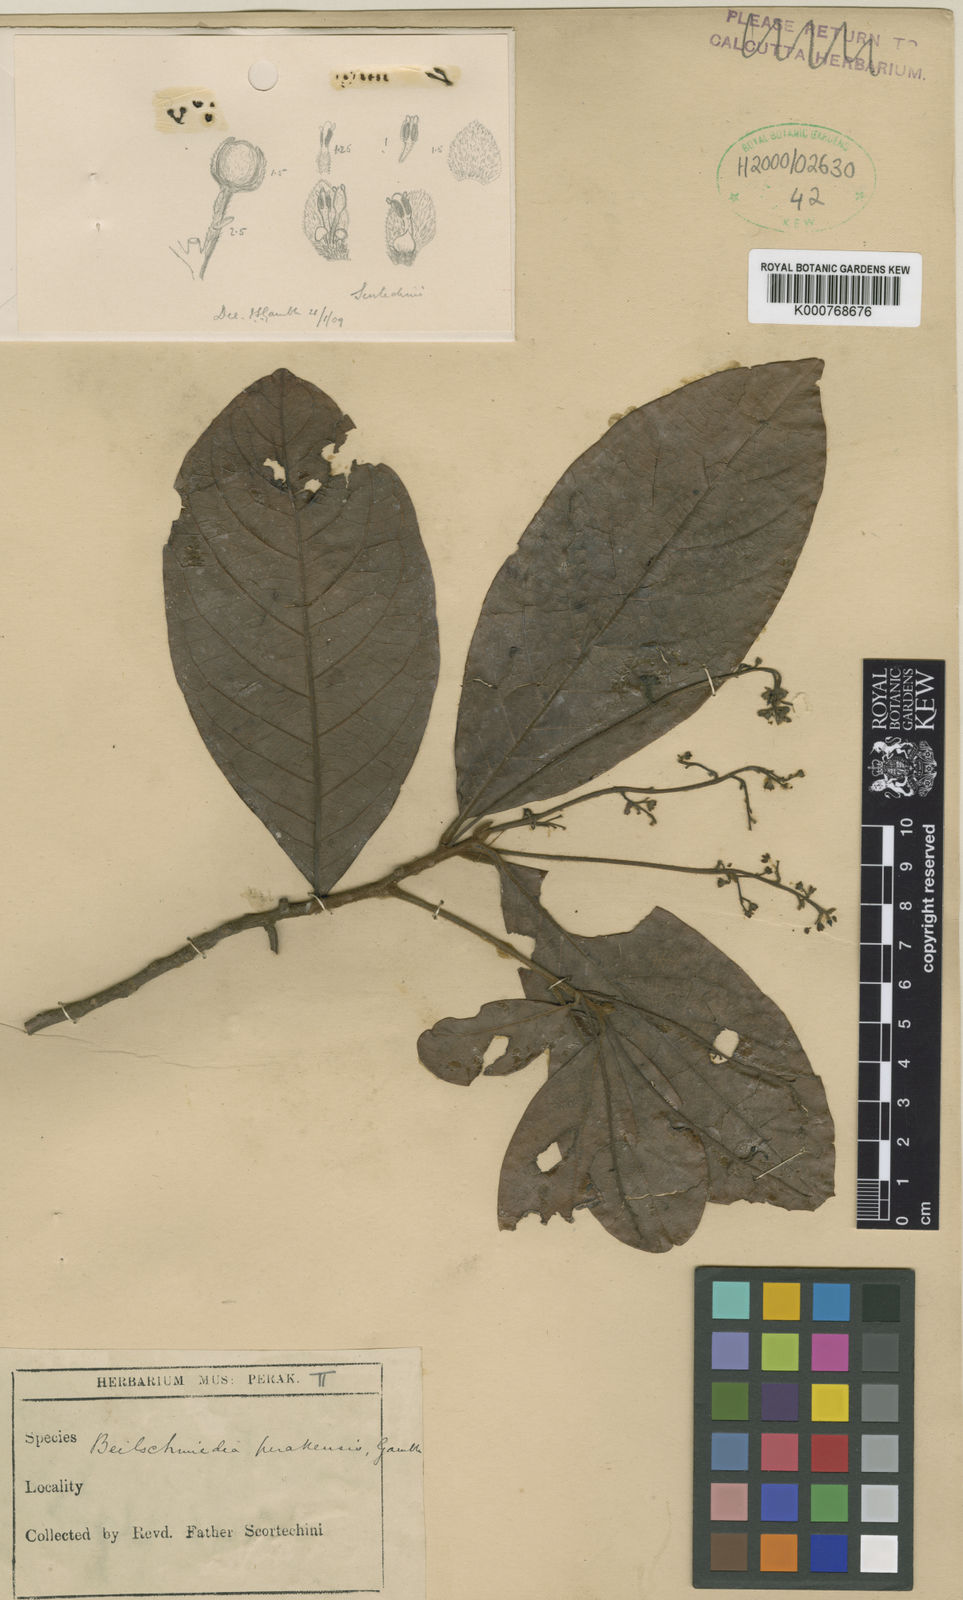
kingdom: Plantae
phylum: Tracheophyta
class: Magnoliopsida
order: Laurales
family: Lauraceae
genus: Beilschmiedia
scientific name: Beilschmiedia madang
